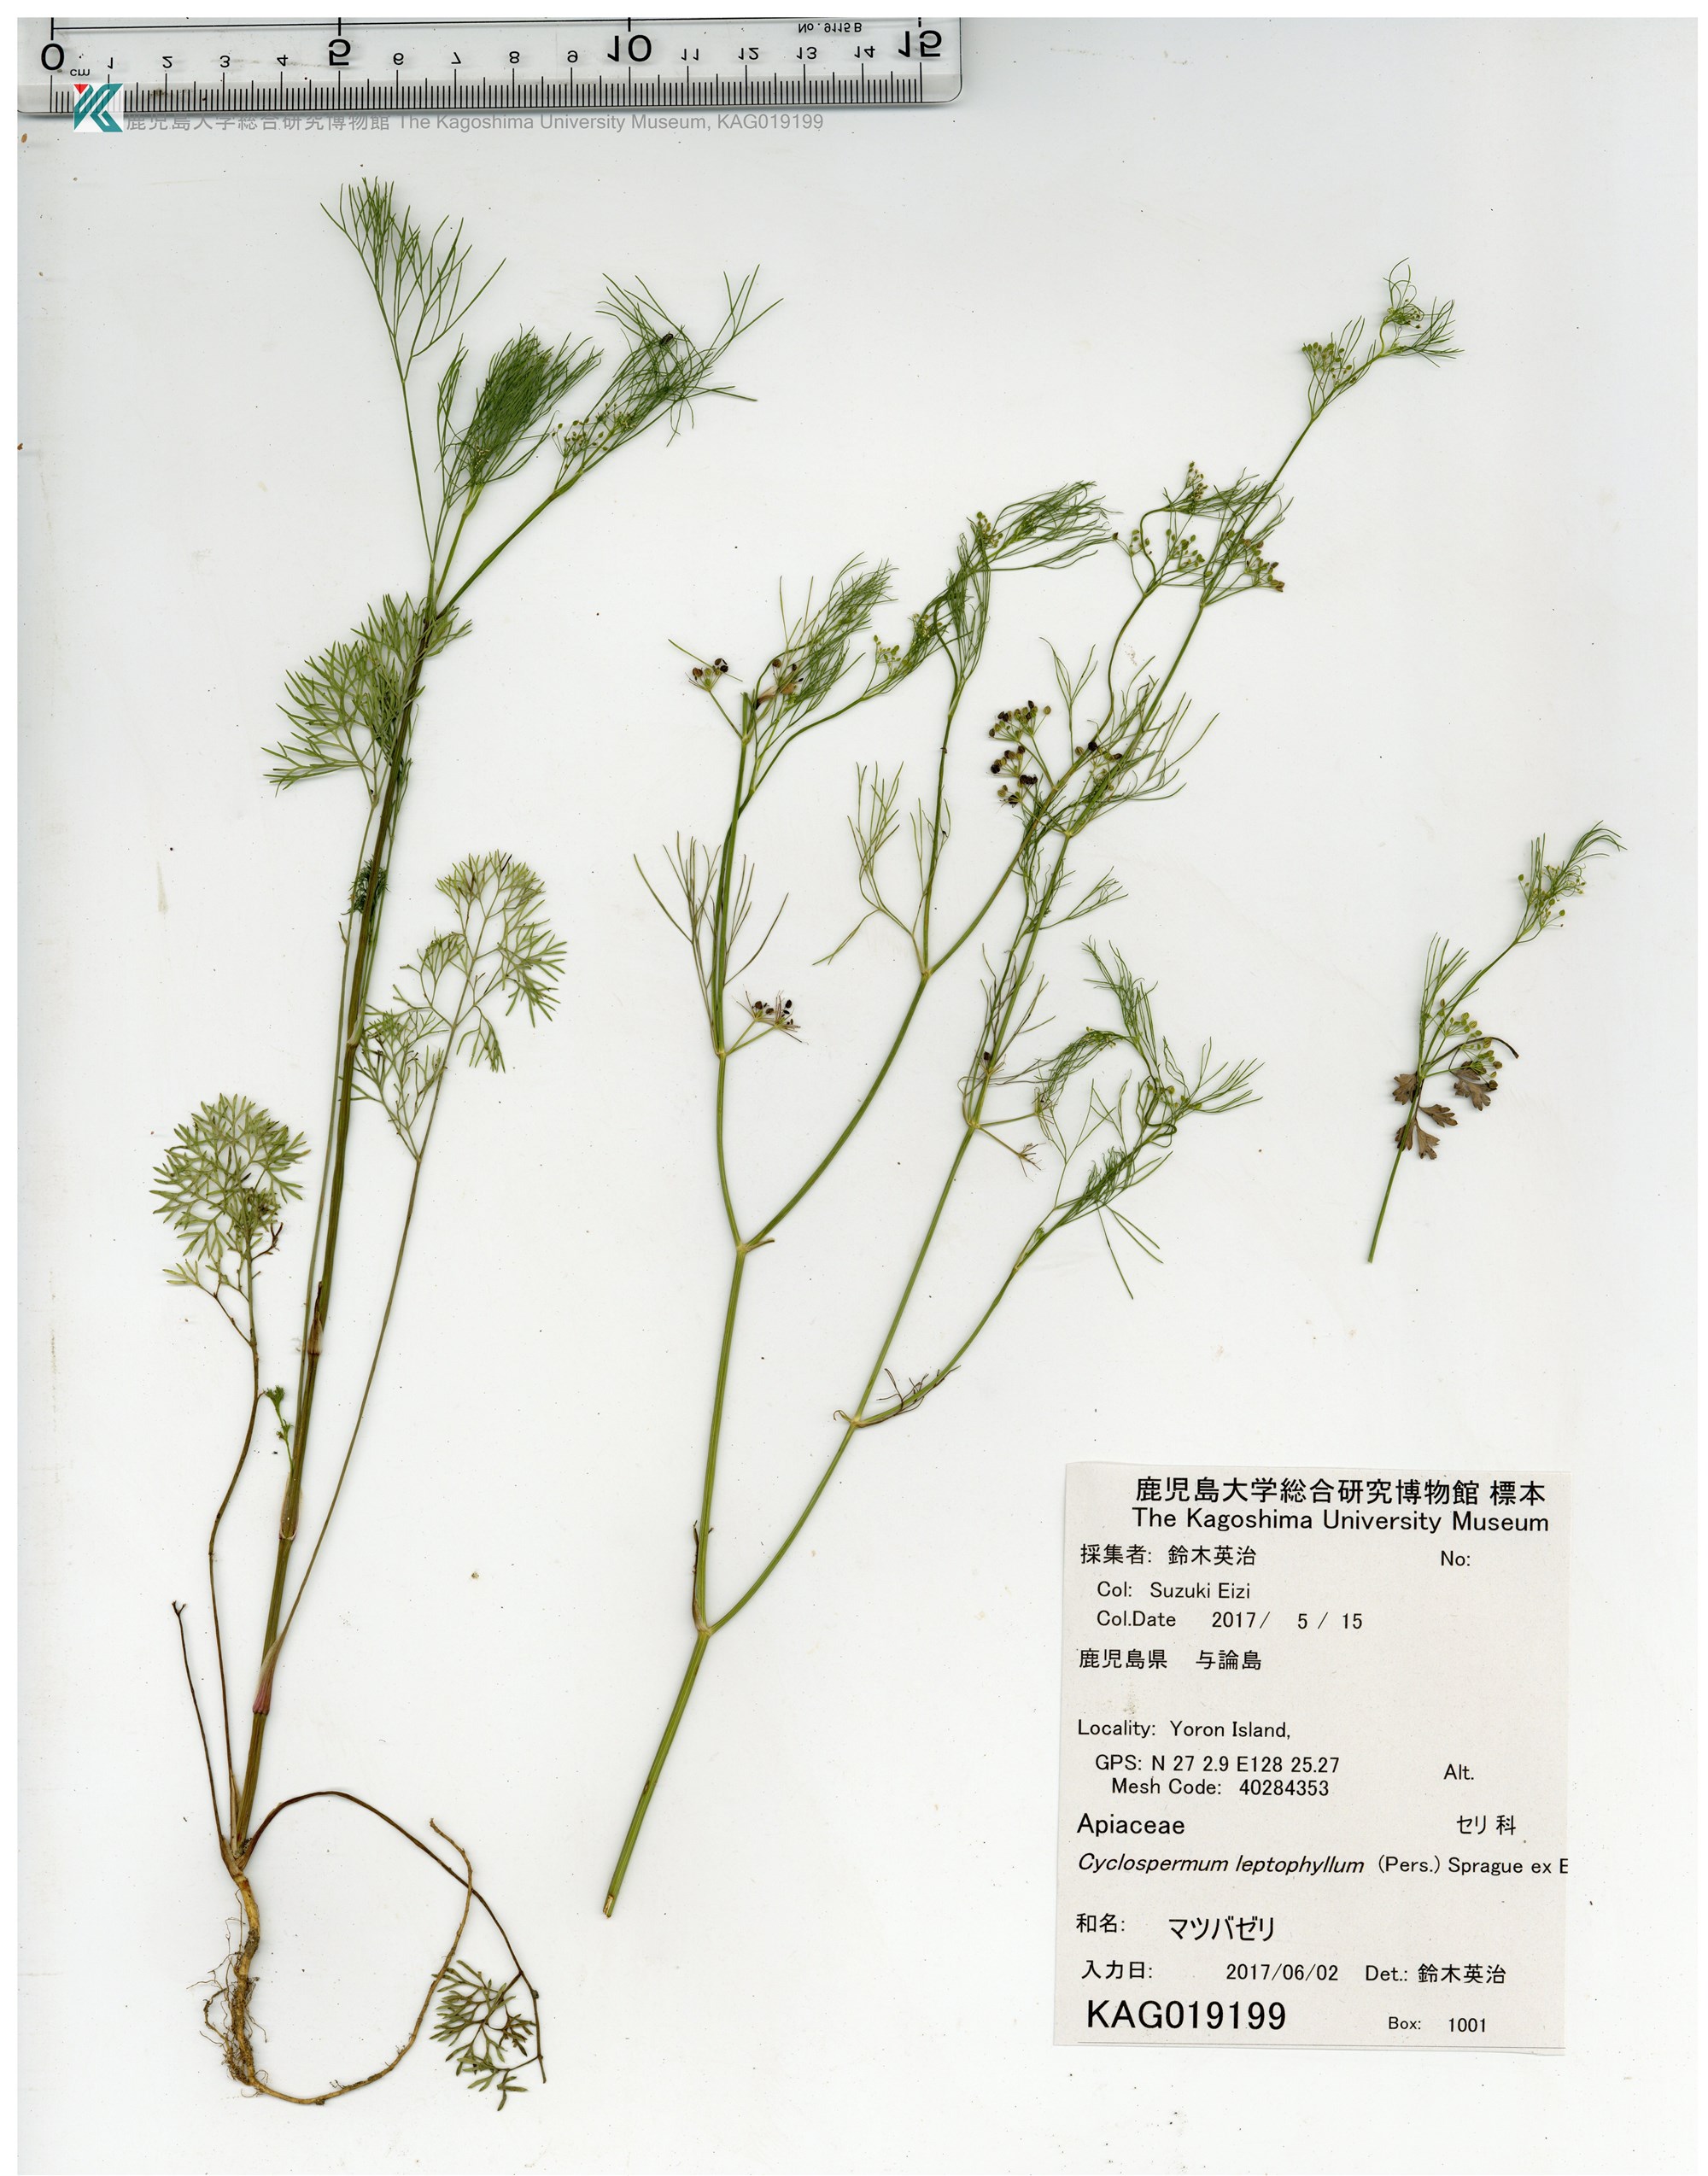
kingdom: Plantae
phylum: Tracheophyta
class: Magnoliopsida
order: Apiales
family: Apiaceae
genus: Cyclospermum
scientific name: Cyclospermum leptophyllum
